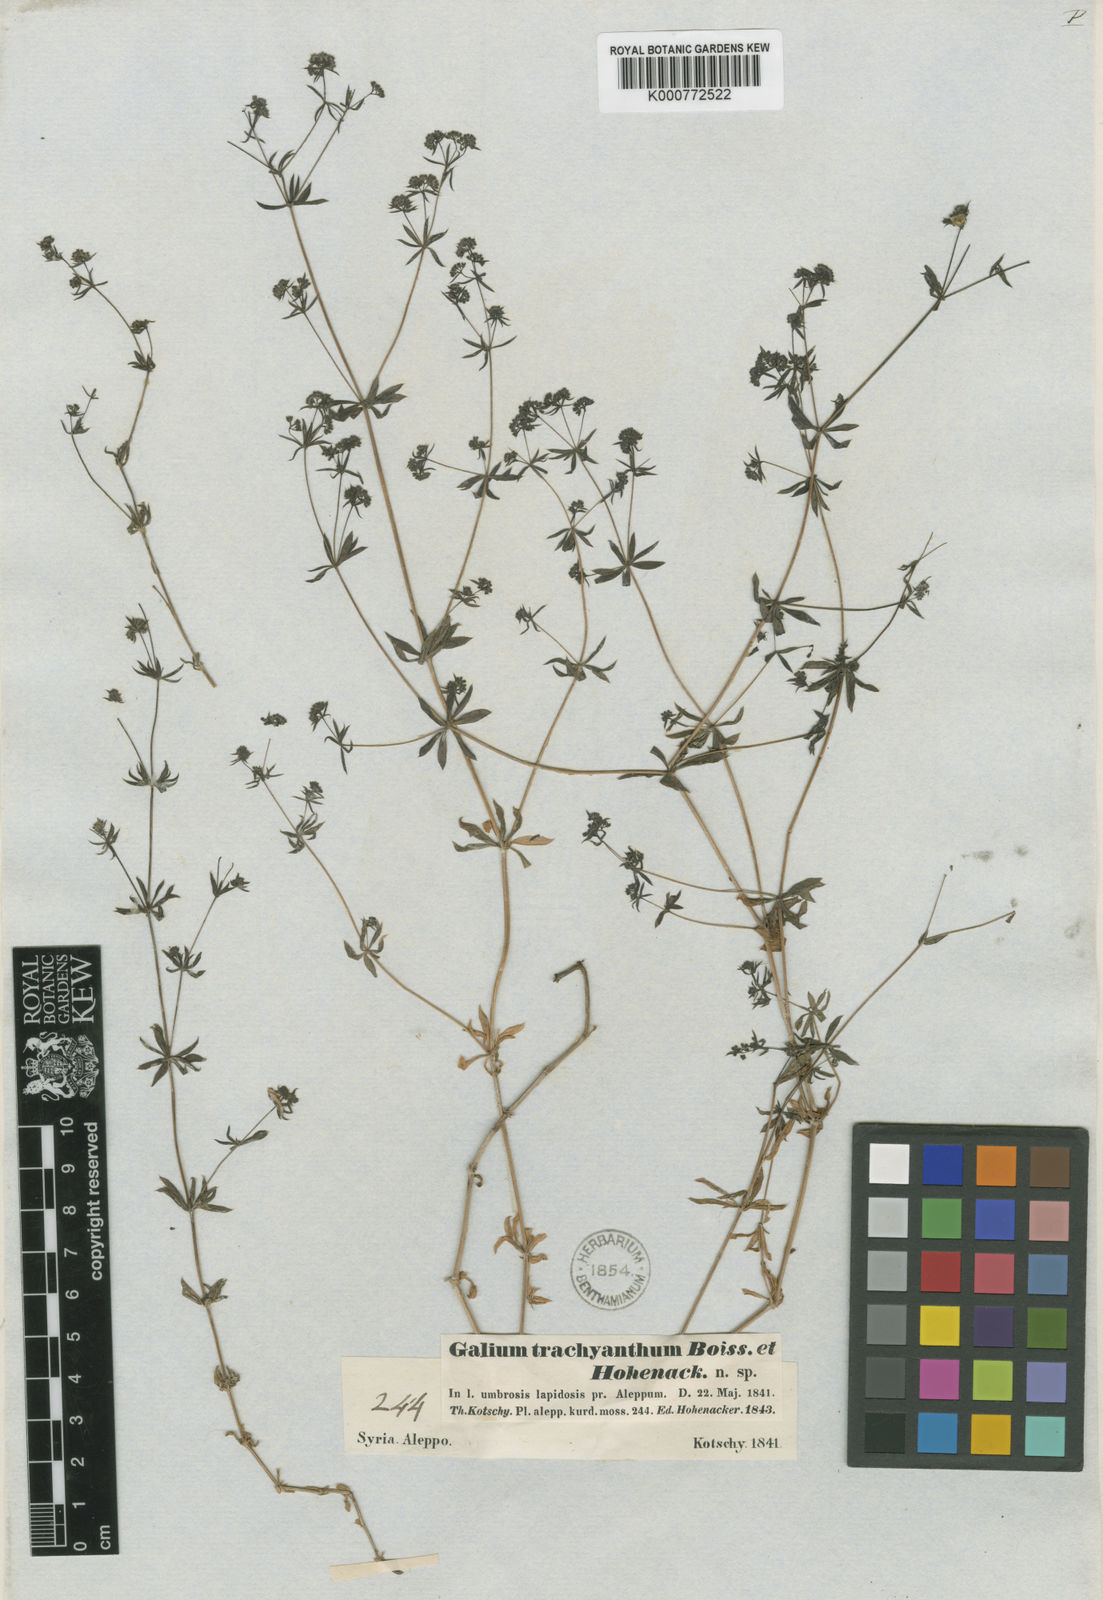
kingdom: Plantae
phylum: Tracheophyta
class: Magnoliopsida
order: Gentianales
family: Rubiaceae
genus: Galium
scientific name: Galium hierosolymitanum
